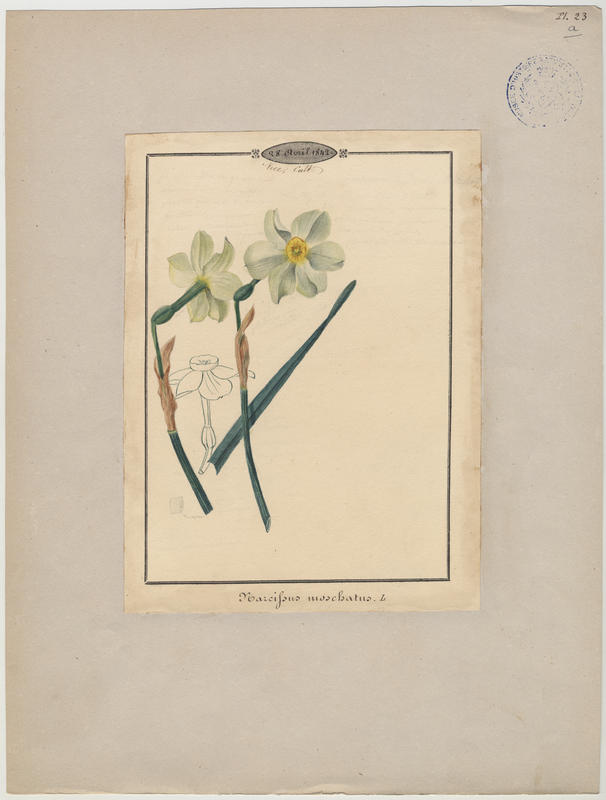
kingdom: Plantae
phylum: Tracheophyta
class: Liliopsida
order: Asparagales
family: Amaryllidaceae
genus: Narcissus
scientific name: Narcissus
